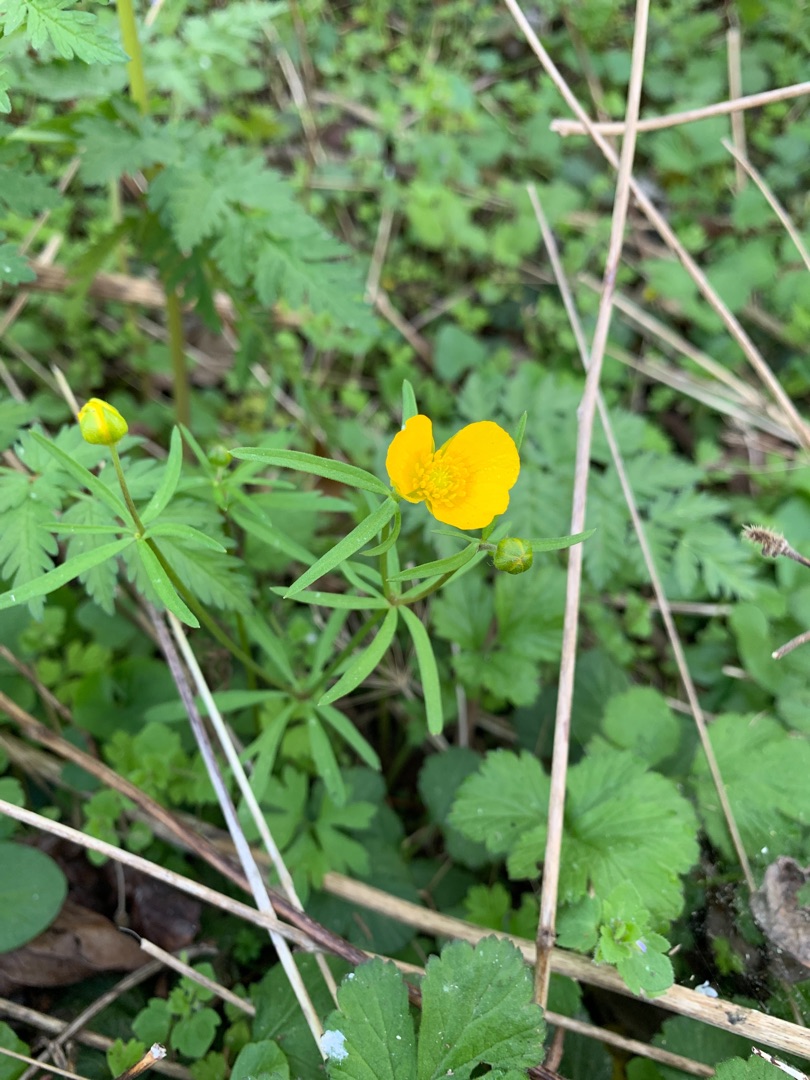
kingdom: Plantae
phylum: Tracheophyta
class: Magnoliopsida
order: Ranunculales
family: Ranunculaceae
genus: Ranunculus
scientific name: Ranunculus auricomus
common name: Nyrebladet ranunkel
